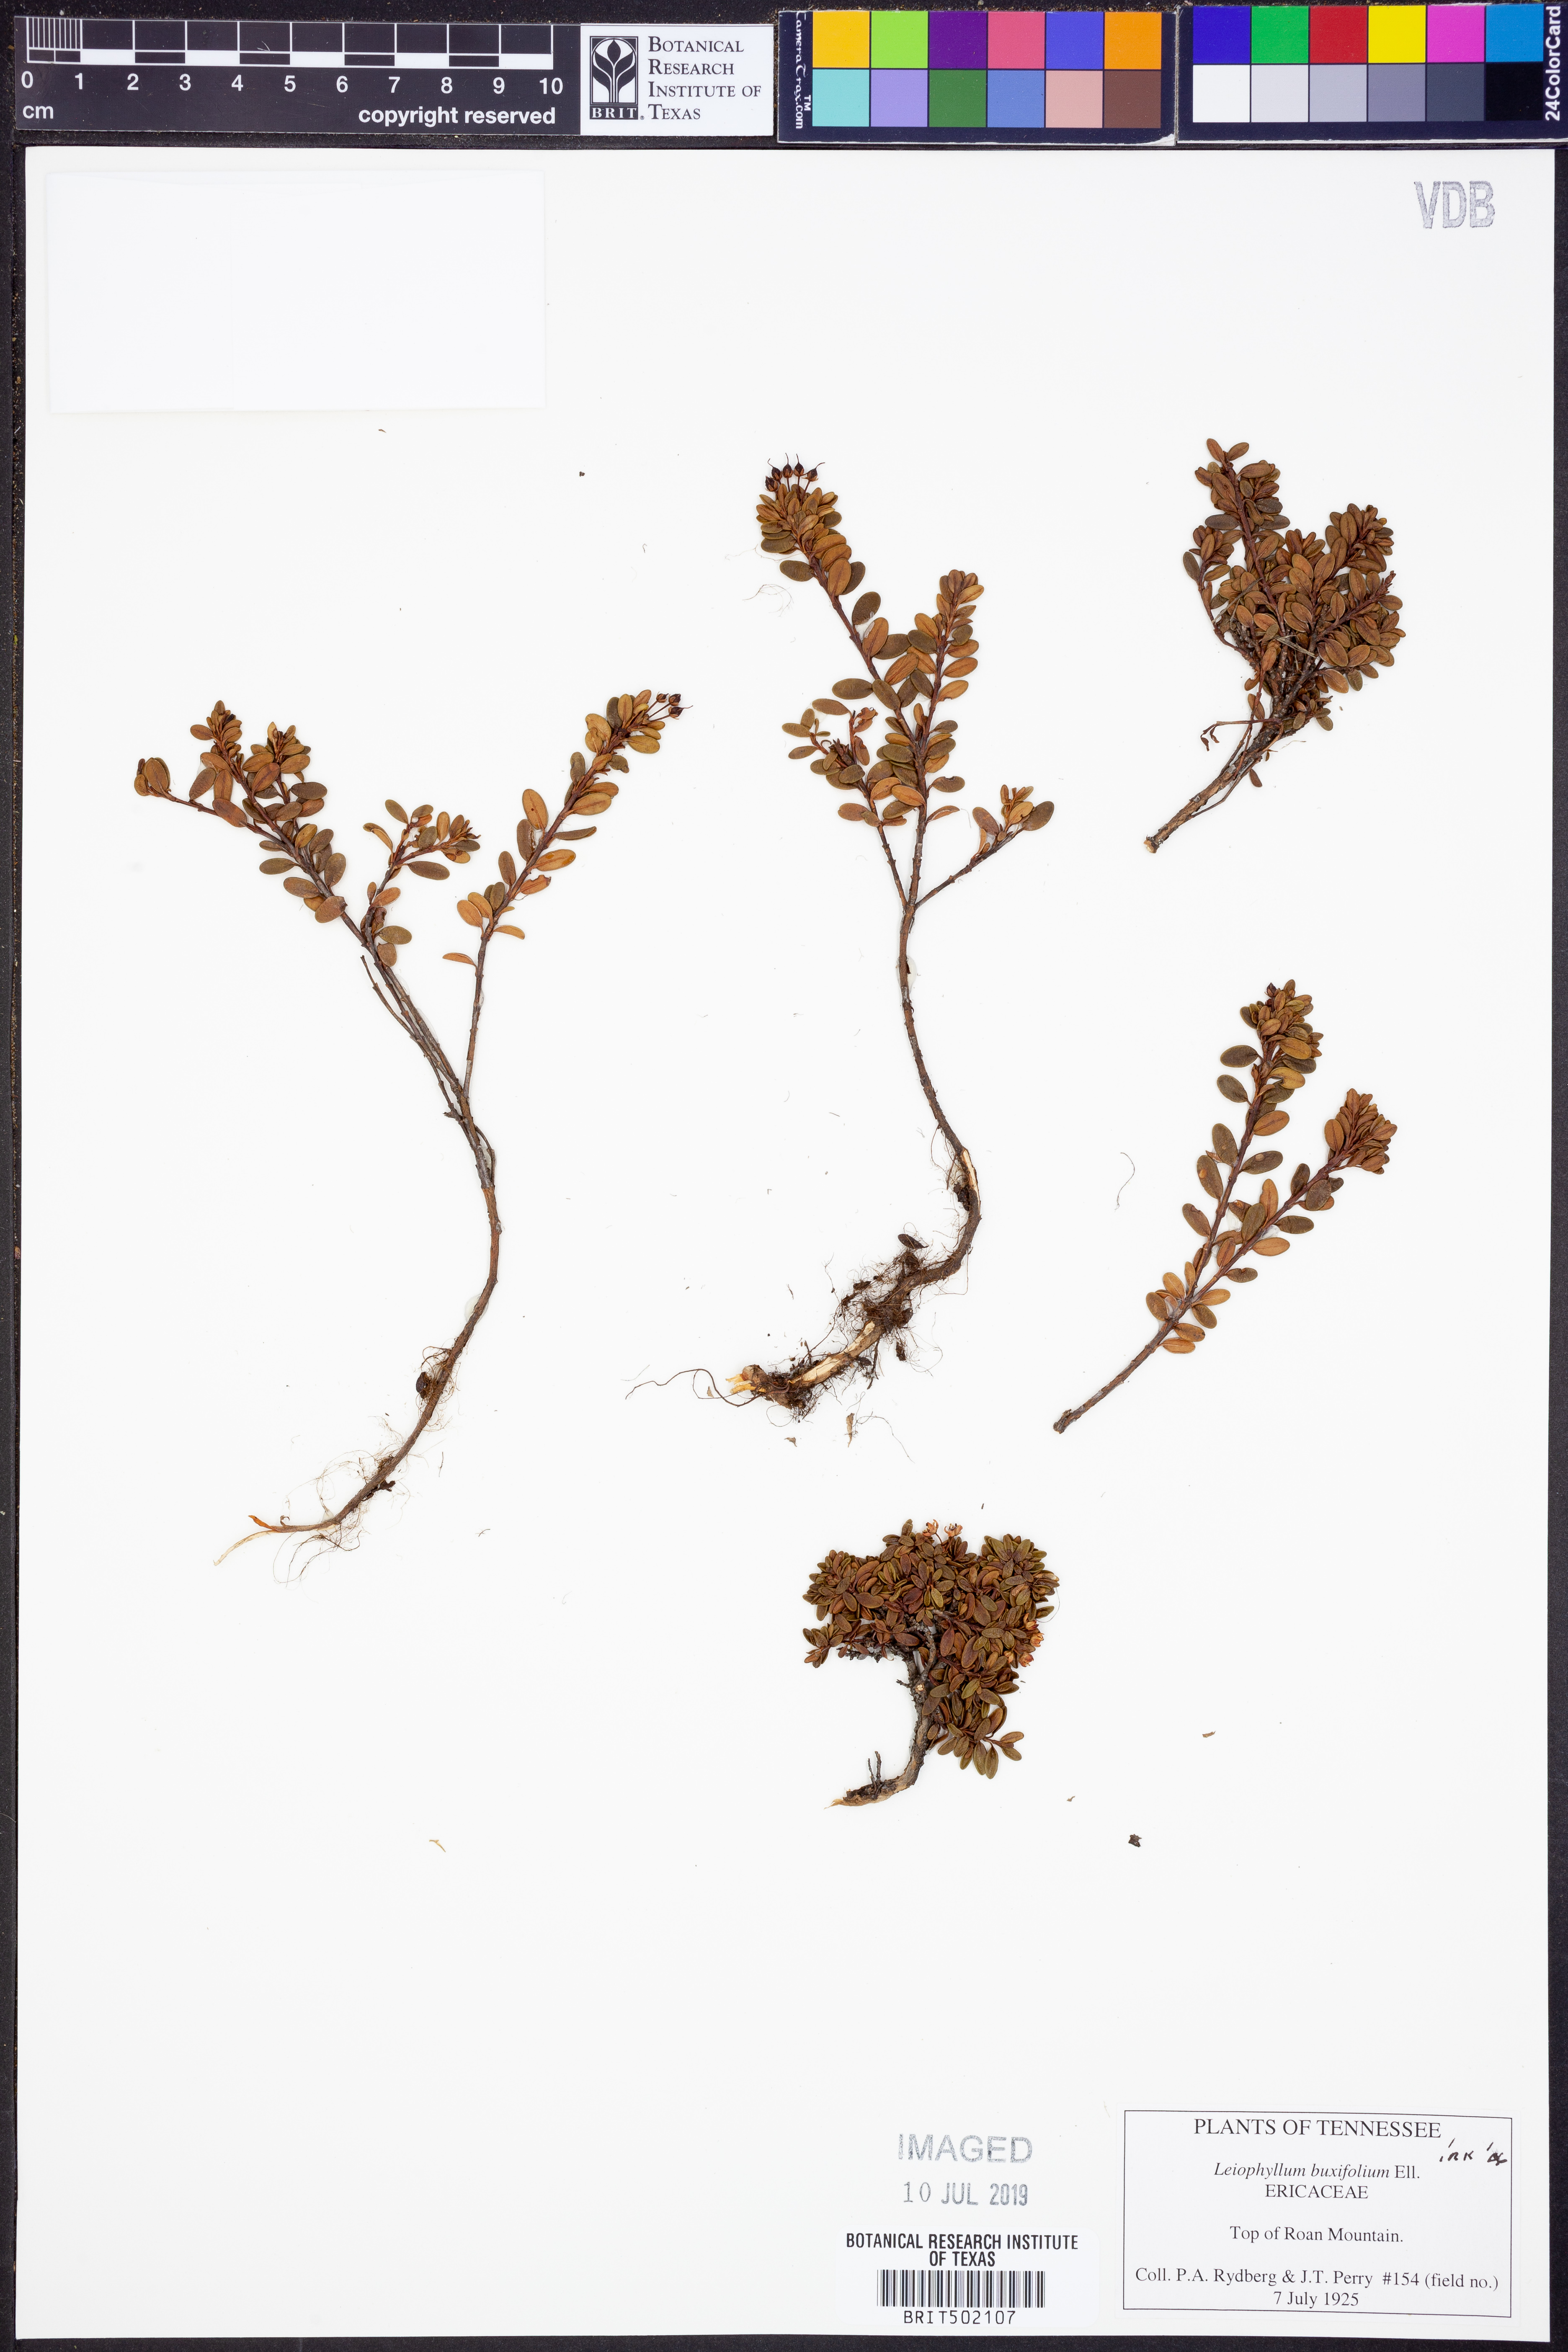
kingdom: Plantae
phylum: Tracheophyta
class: Magnoliopsida
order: Ericales
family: Ericaceae
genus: Kalmia
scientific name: Kalmia buxifolia
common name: Sandmyrtle
